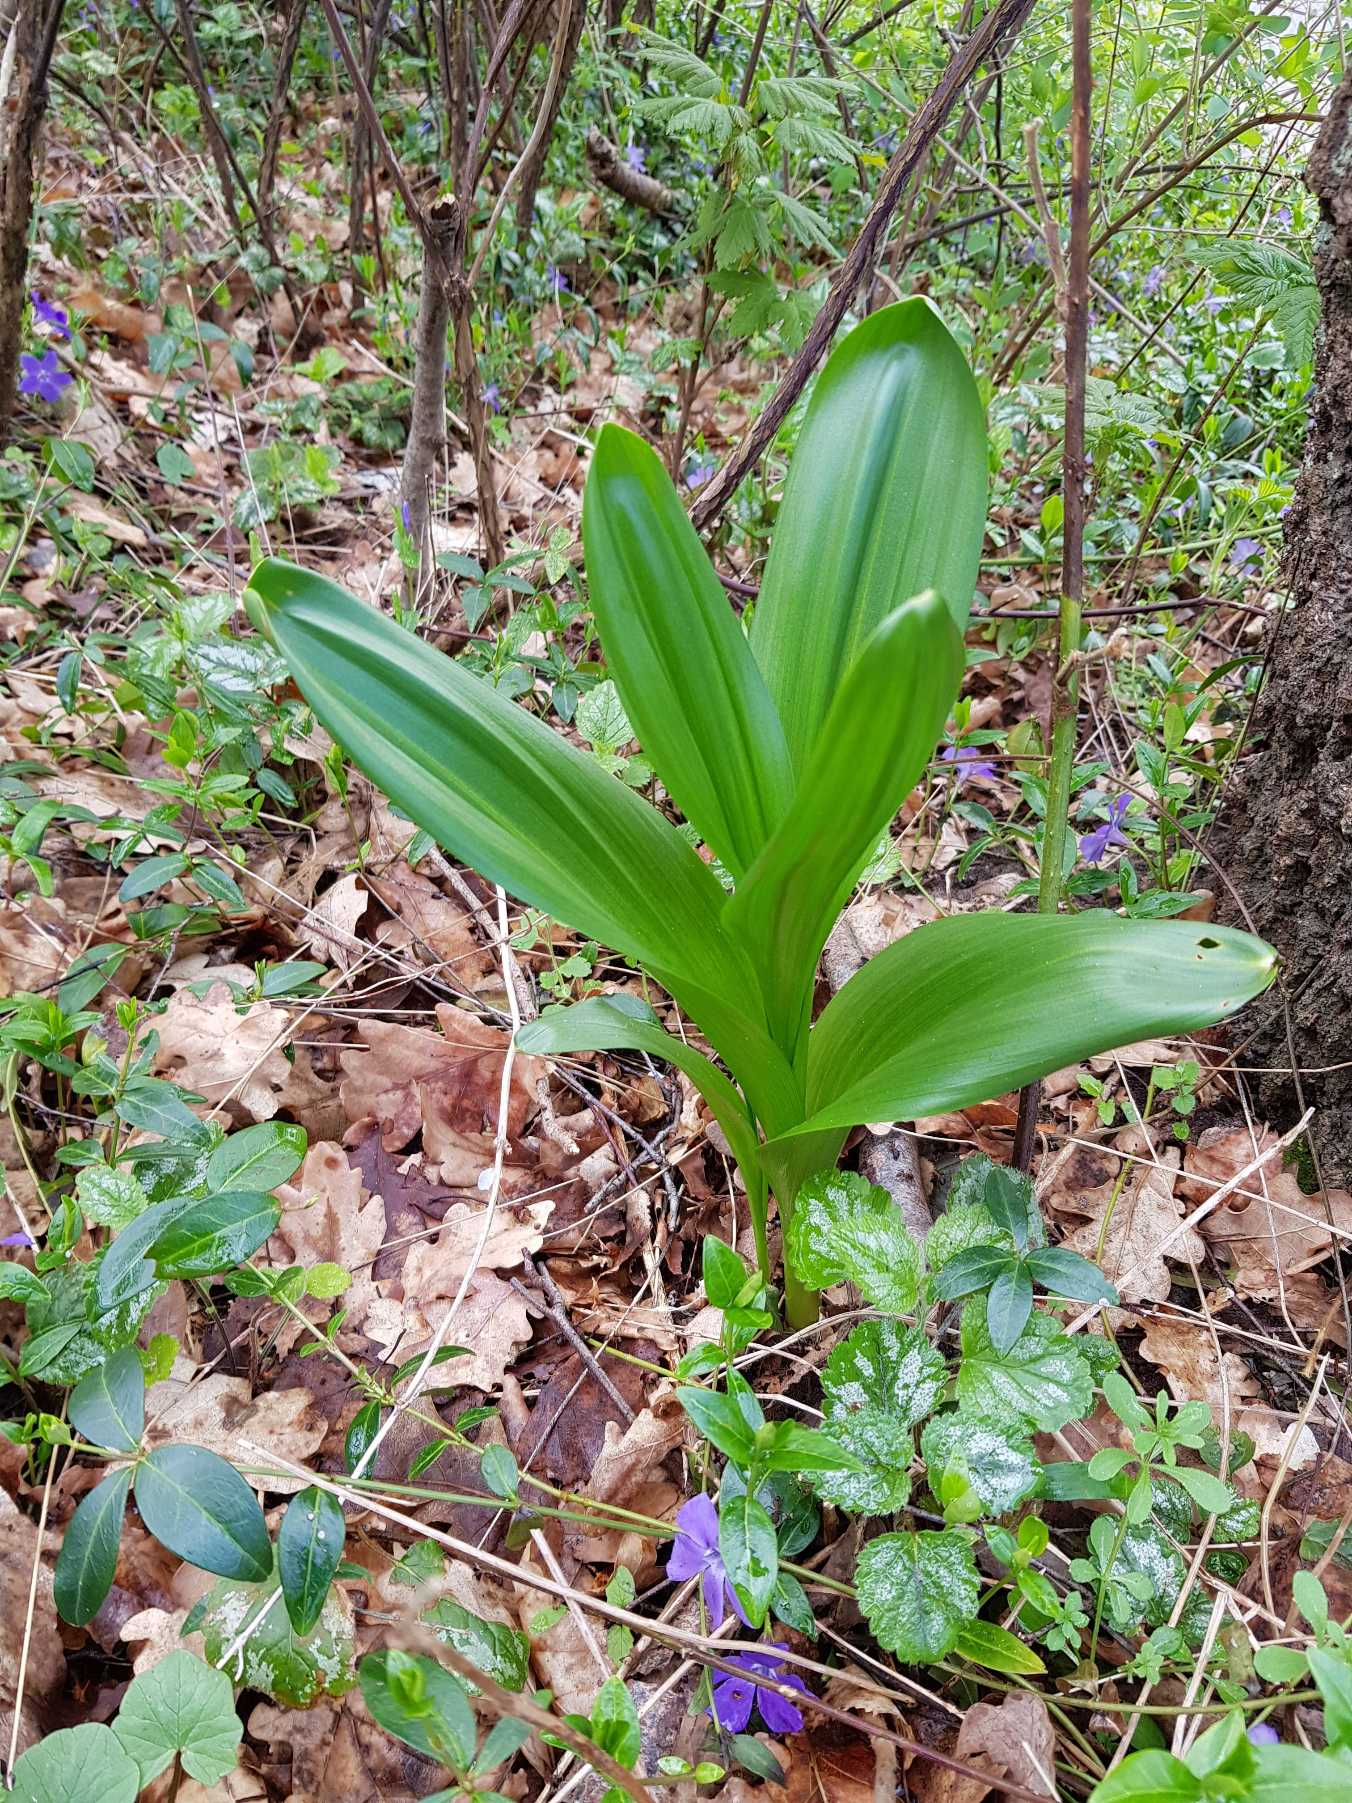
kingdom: Plantae
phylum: Tracheophyta
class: Liliopsida
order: Liliales
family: Colchicaceae
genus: Colchicum
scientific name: Colchicum autumnale
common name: Høst-tidløs
